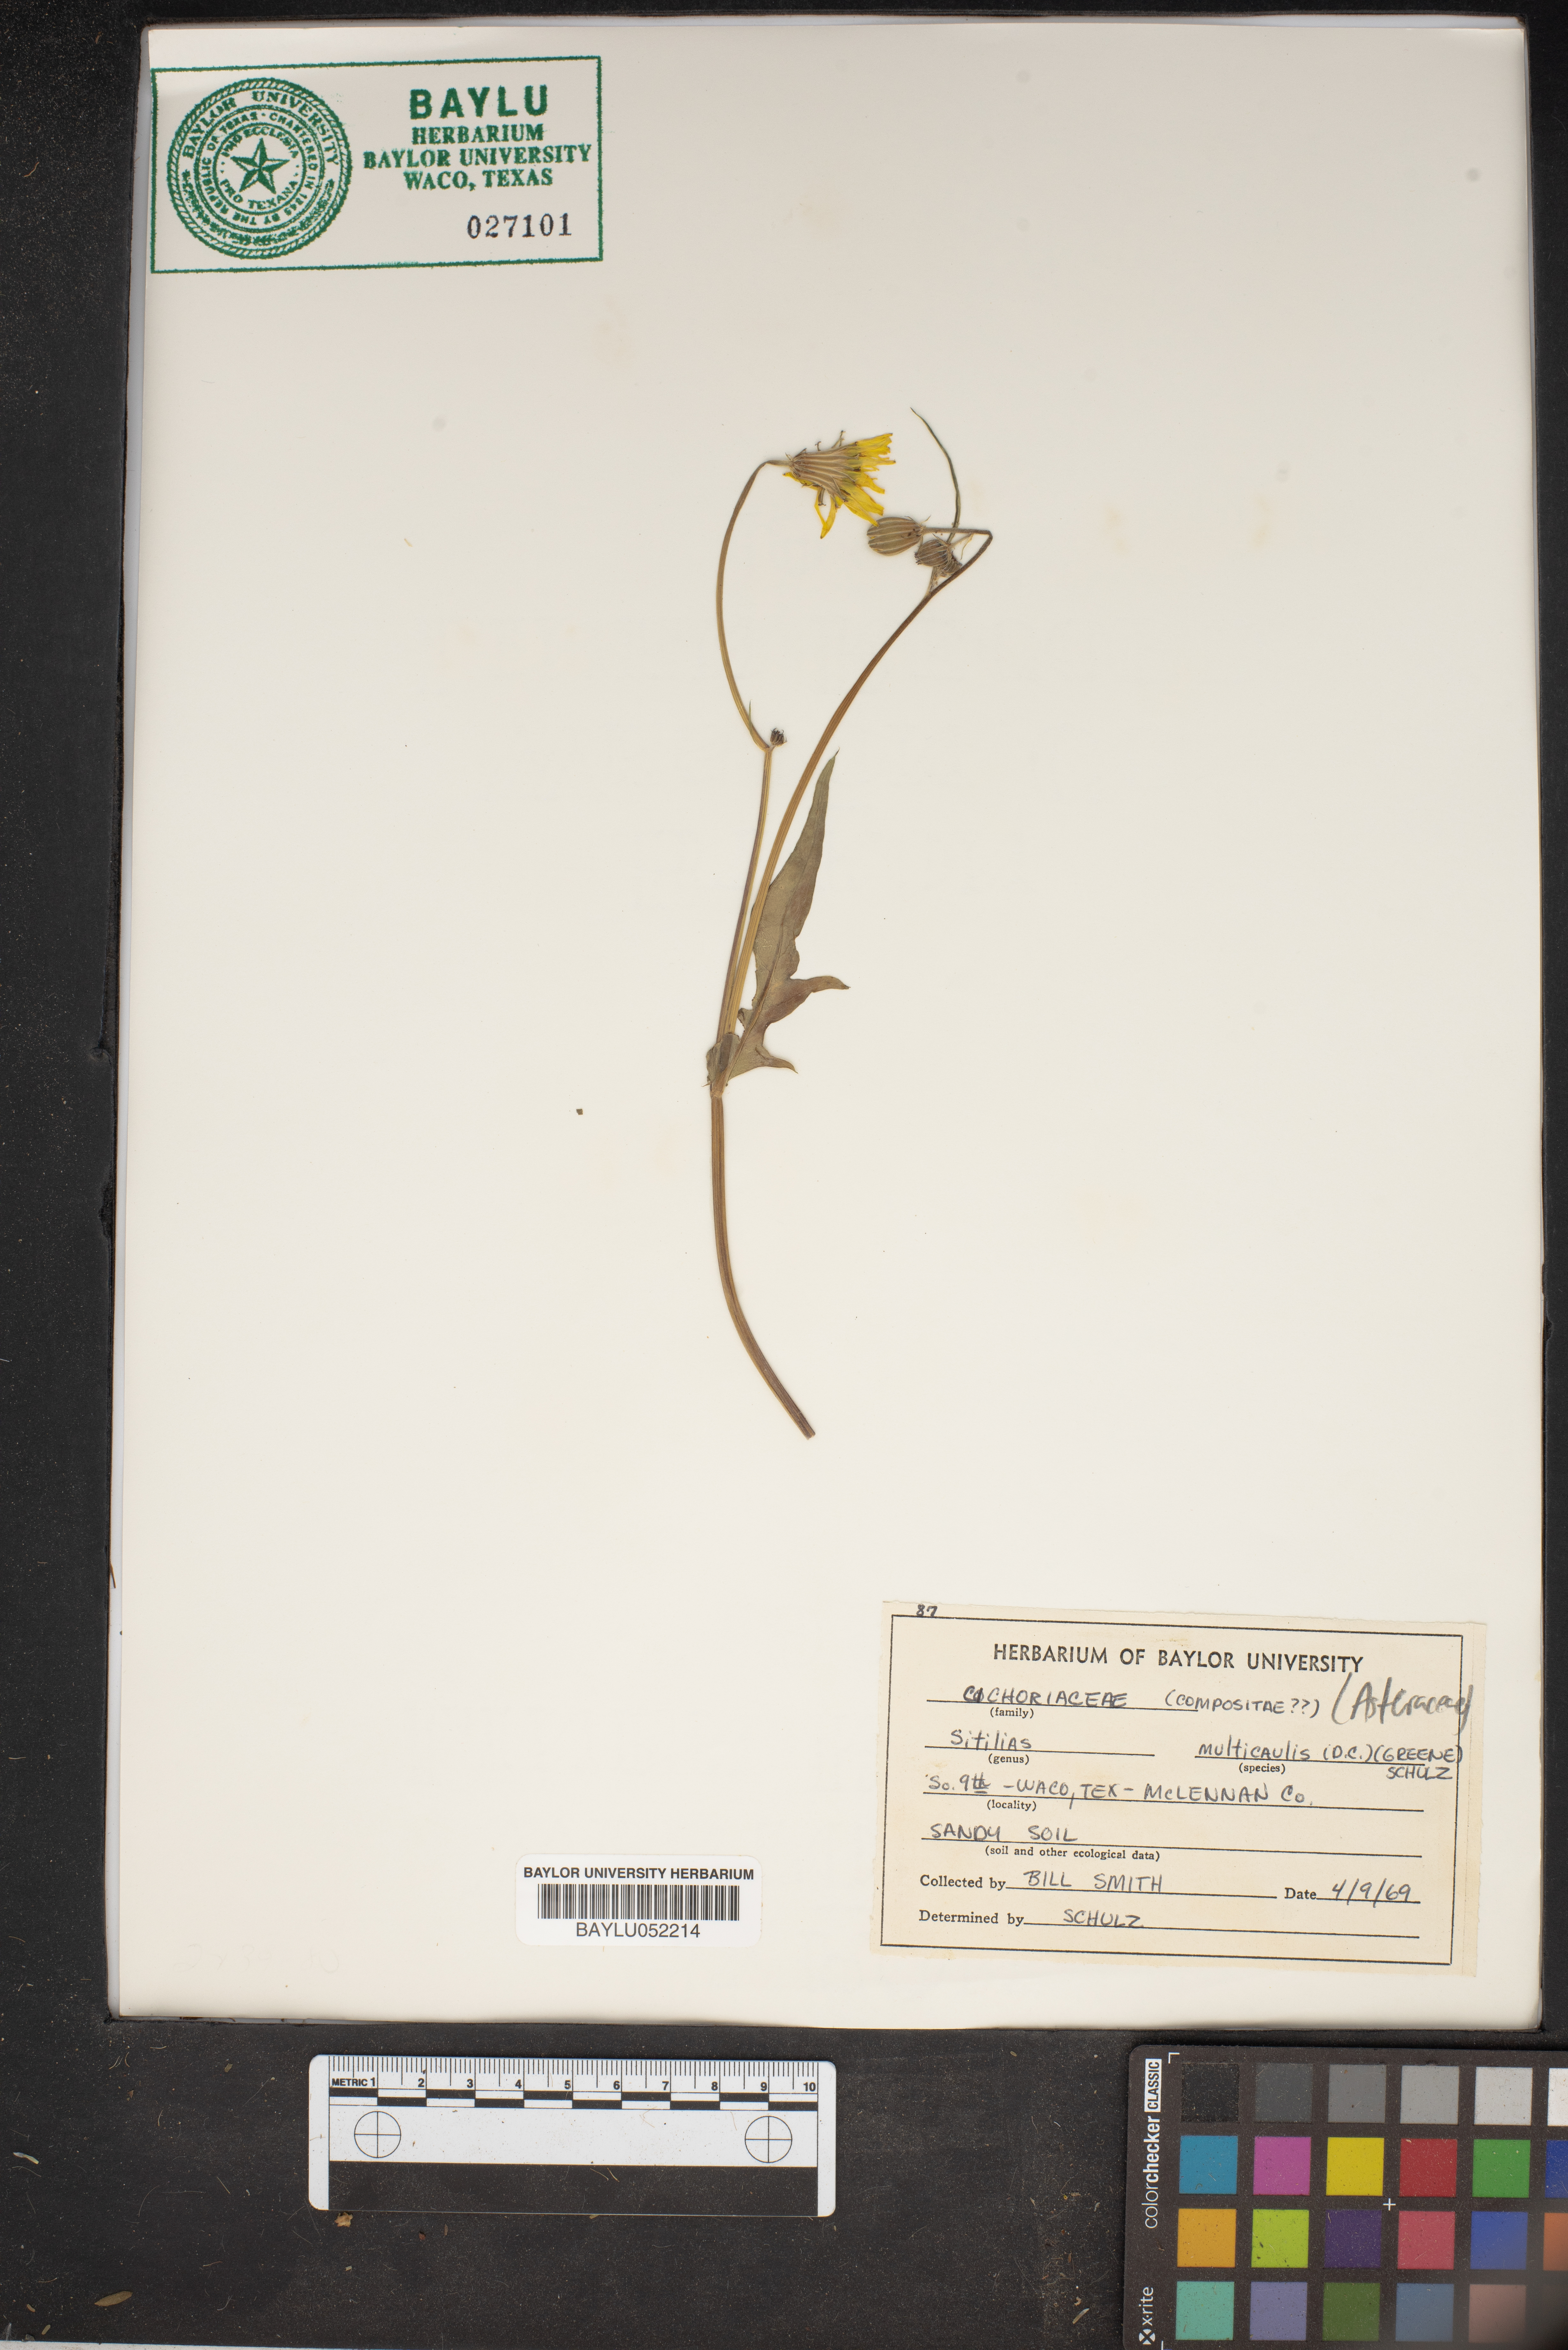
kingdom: Plantae
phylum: Tracheophyta
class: Magnoliopsida
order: Asterales
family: Asteraceae
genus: Pyrrhopappus
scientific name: Pyrrhopappus pauciflorus
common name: Texas false dandelion
